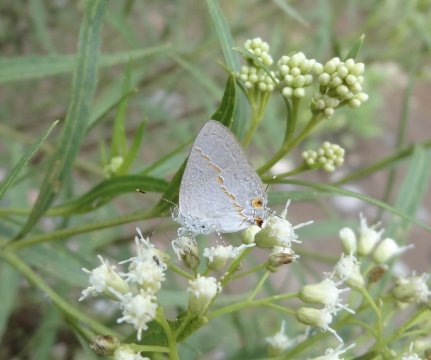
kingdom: Animalia
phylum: Arthropoda
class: Insecta
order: Lepidoptera
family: Lycaenidae
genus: Ministrymon
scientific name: Ministrymon janevicroy
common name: Pebbly Ministreak
